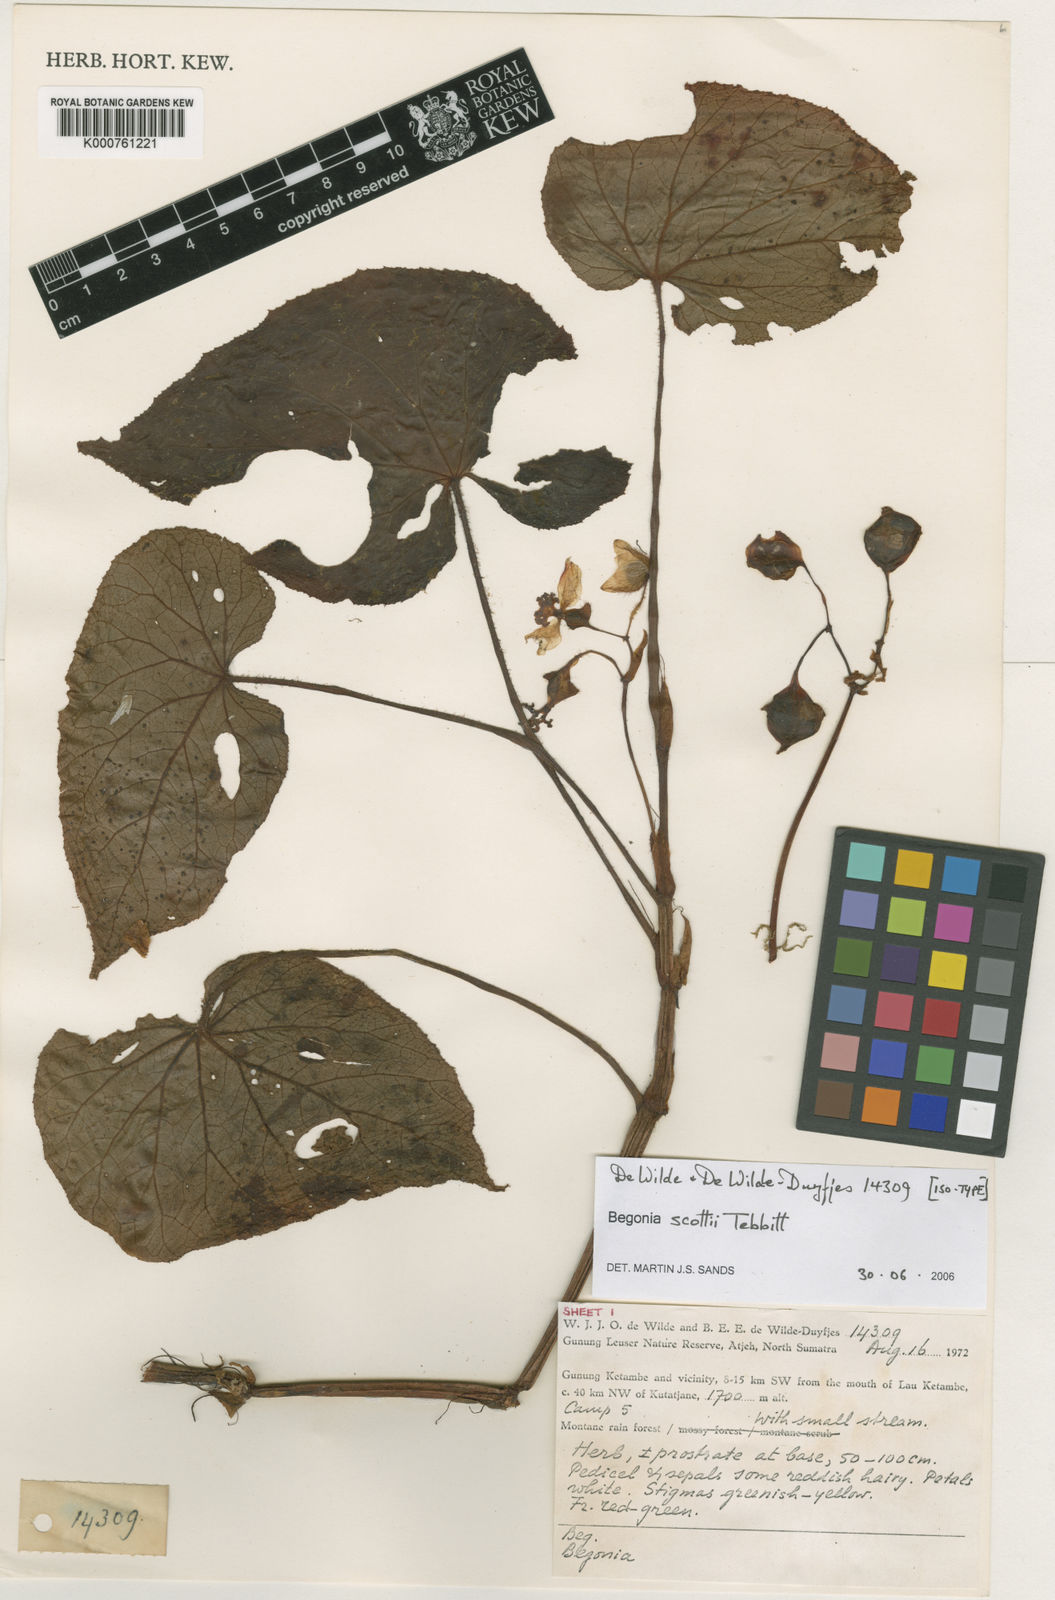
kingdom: Plantae
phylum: Tracheophyta
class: Magnoliopsida
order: Cucurbitales
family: Begoniaceae
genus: Begonia
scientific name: Begonia scottii
